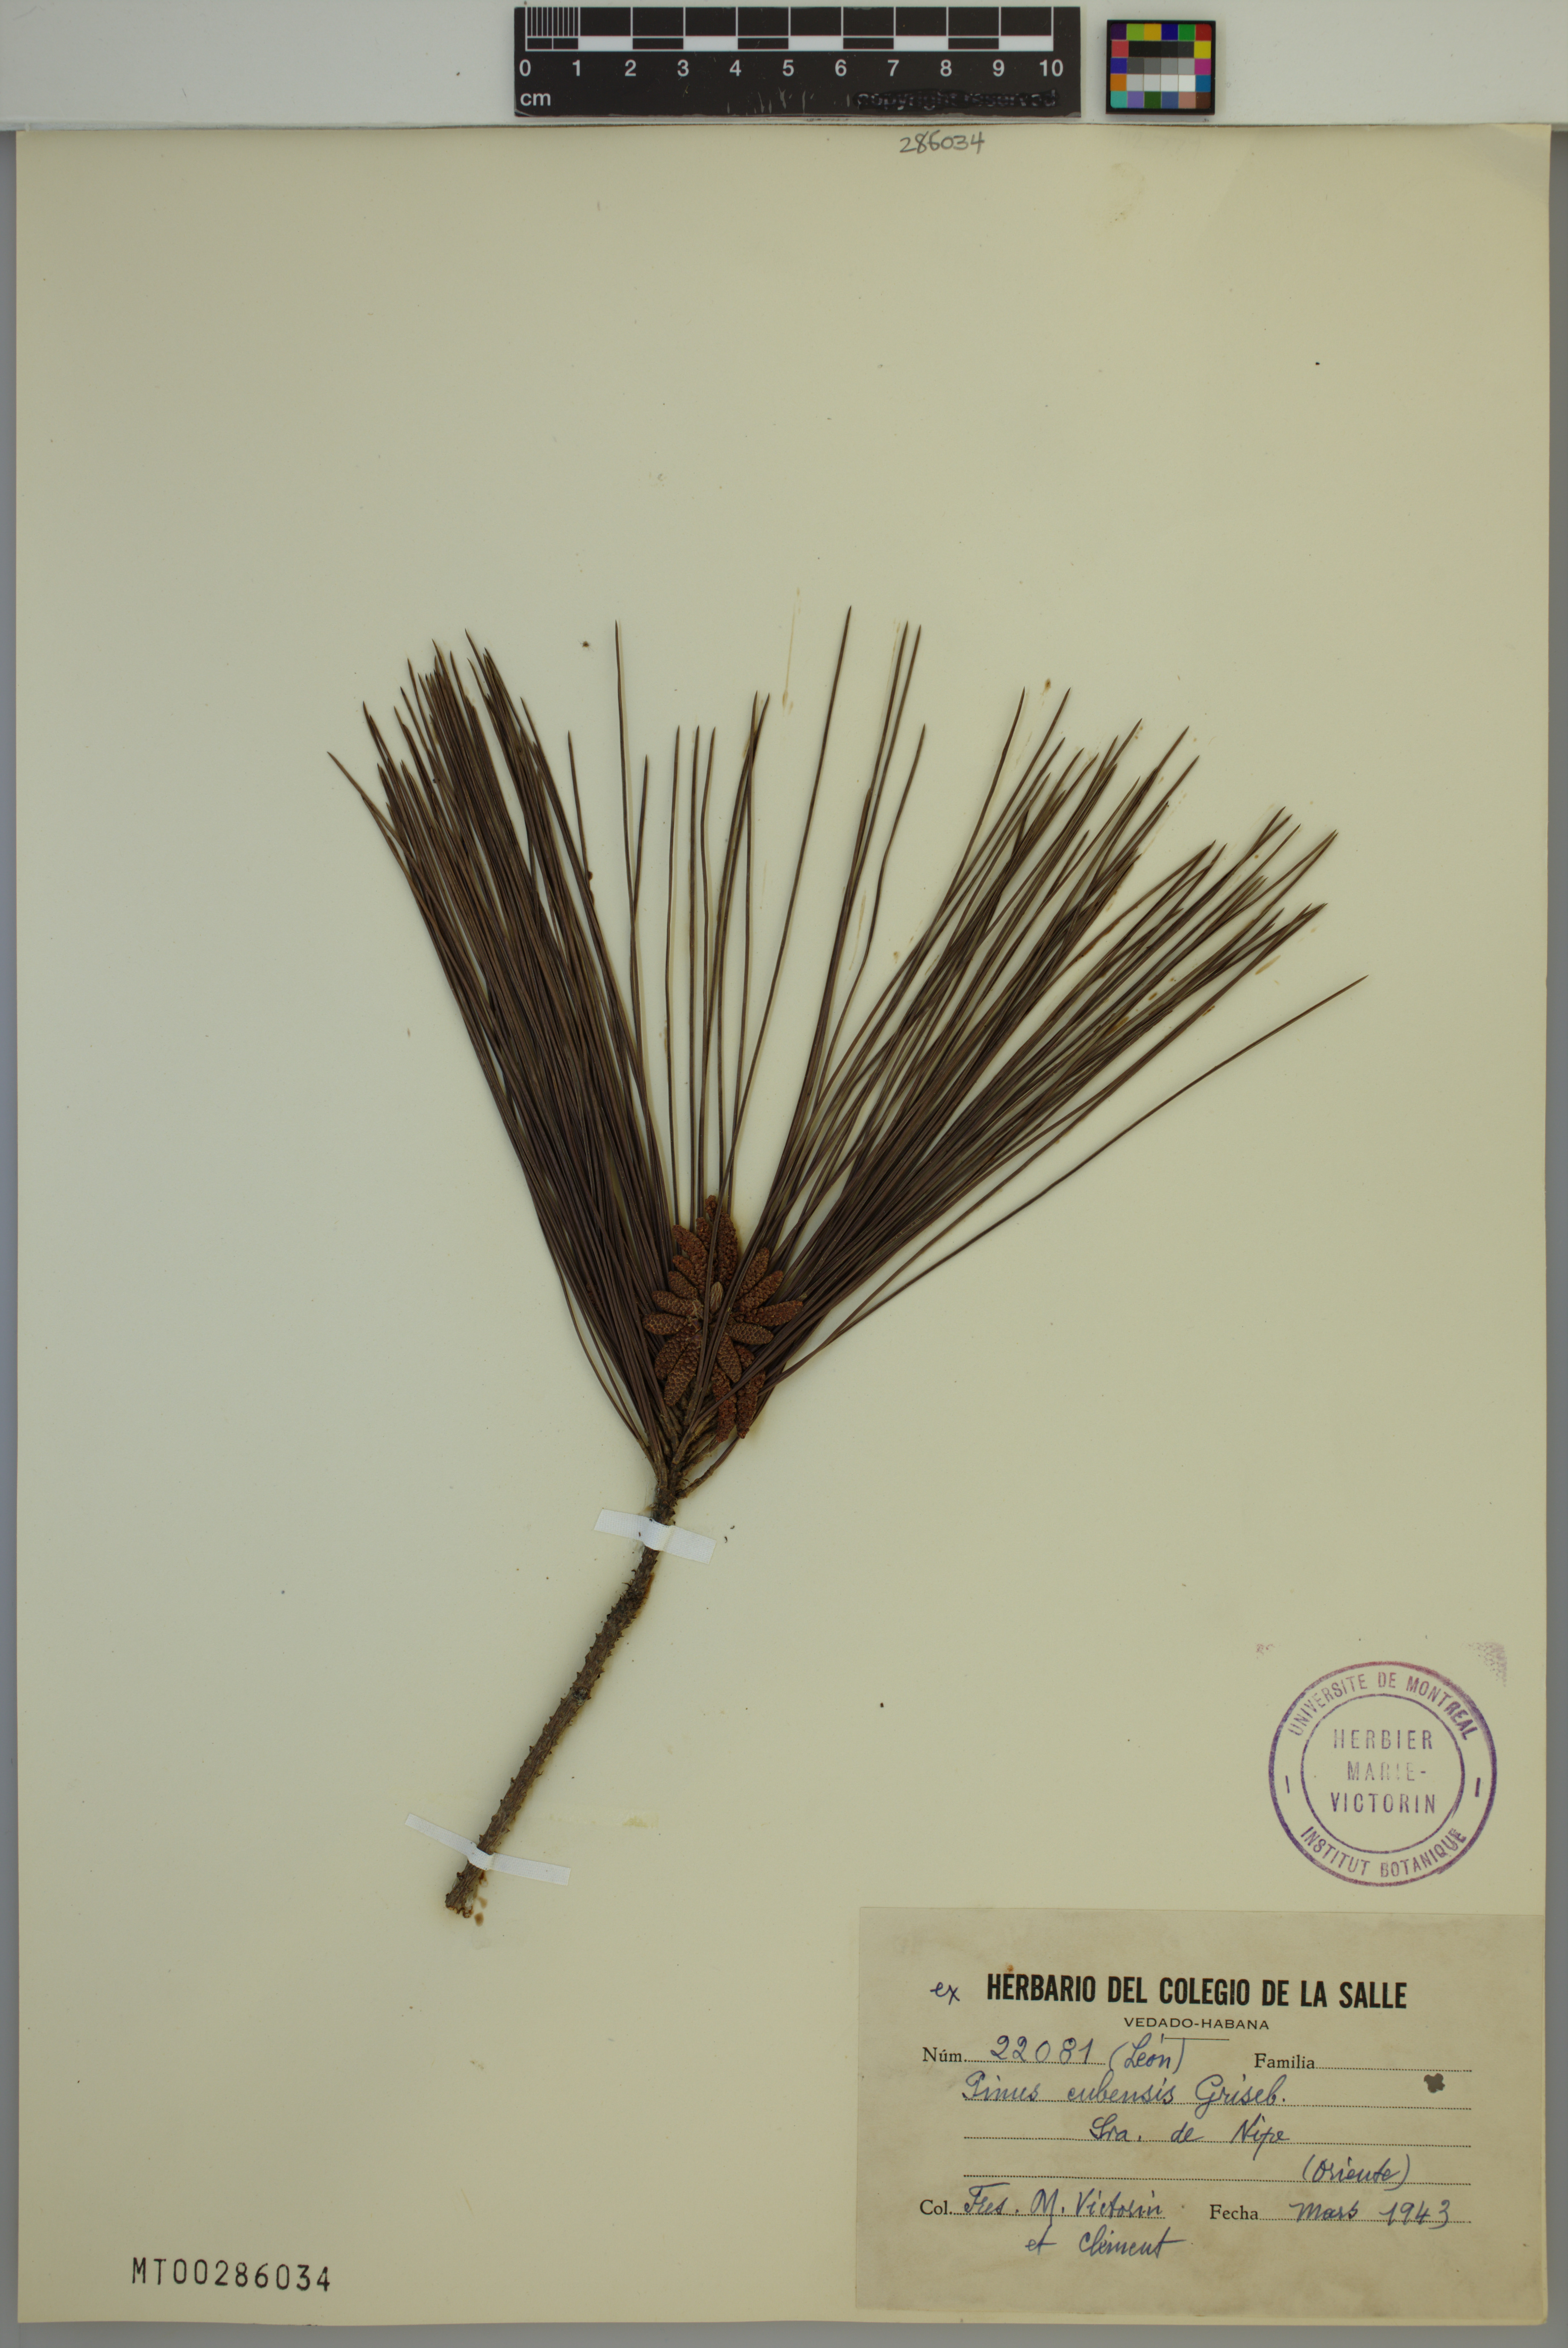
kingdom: Plantae
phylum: Tracheophyta
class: Pinopsida
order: Pinales
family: Pinaceae
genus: Pinus
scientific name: Pinus cubensis
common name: Cuban pine
